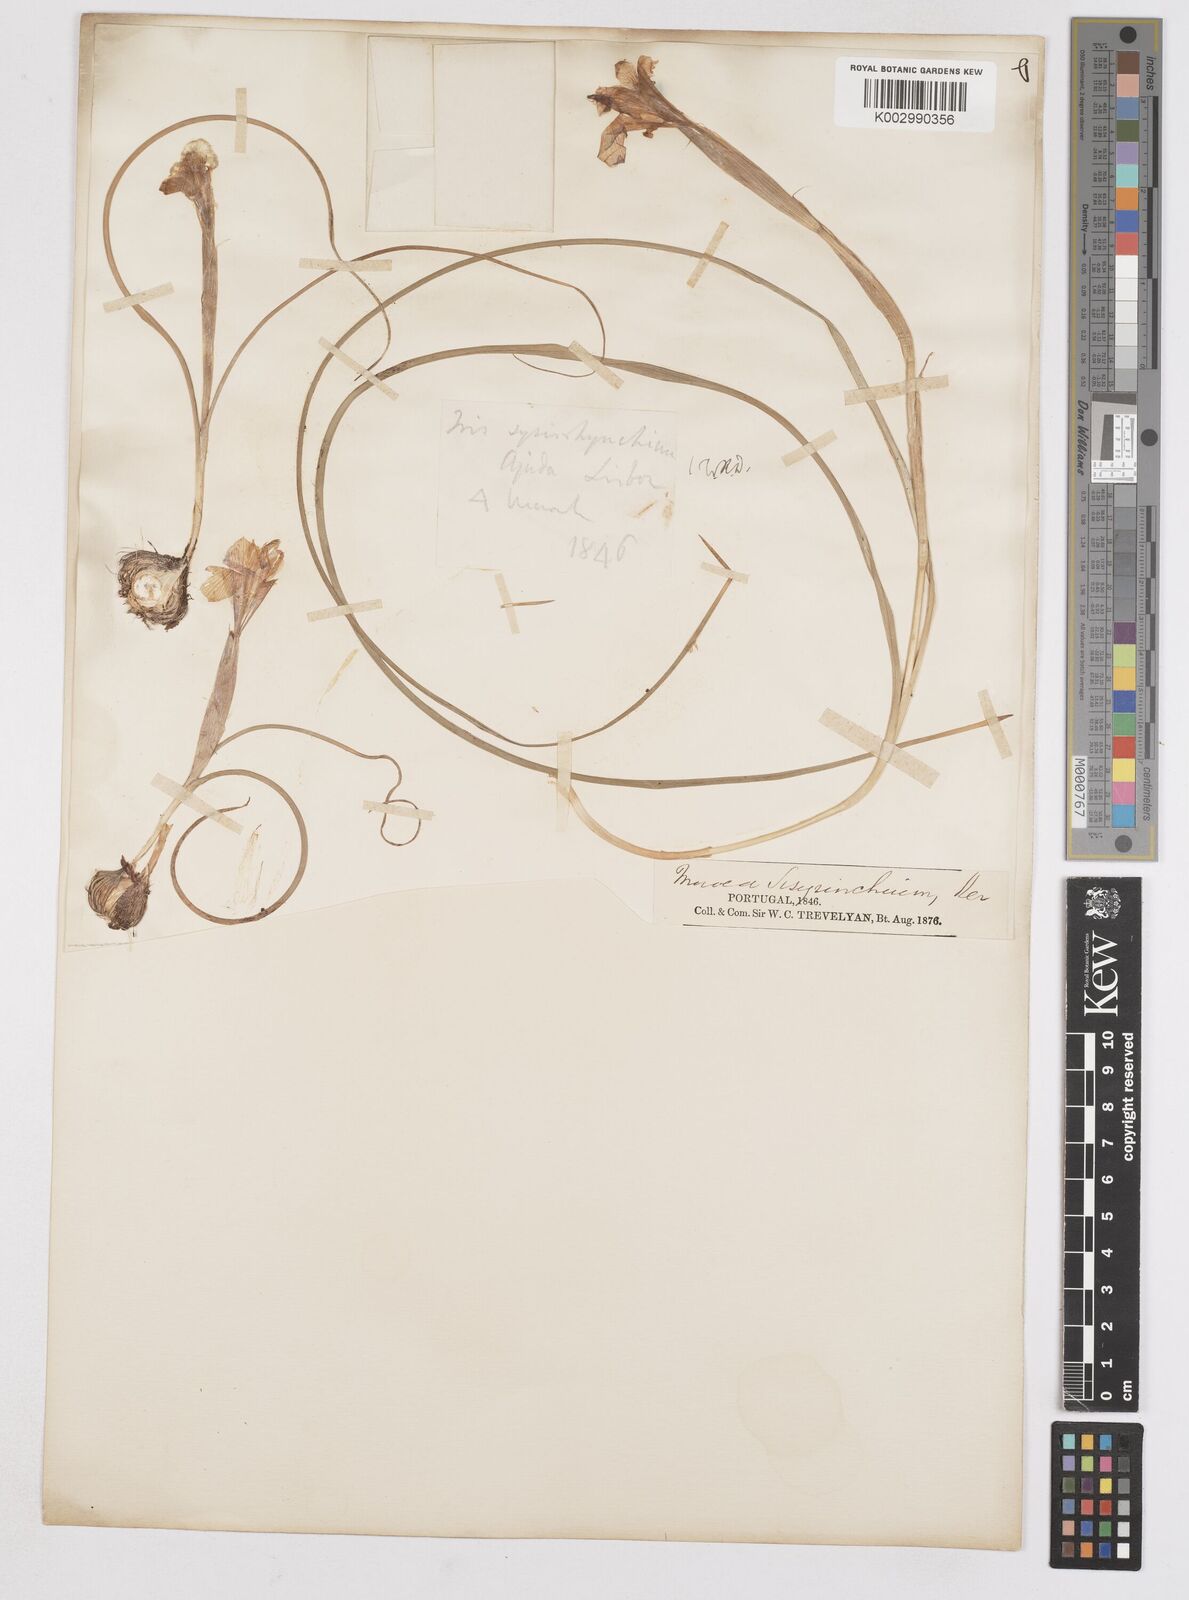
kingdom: Plantae
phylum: Tracheophyta
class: Liliopsida
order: Asparagales
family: Iridaceae
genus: Moraea
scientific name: Moraea sisyrinchium
